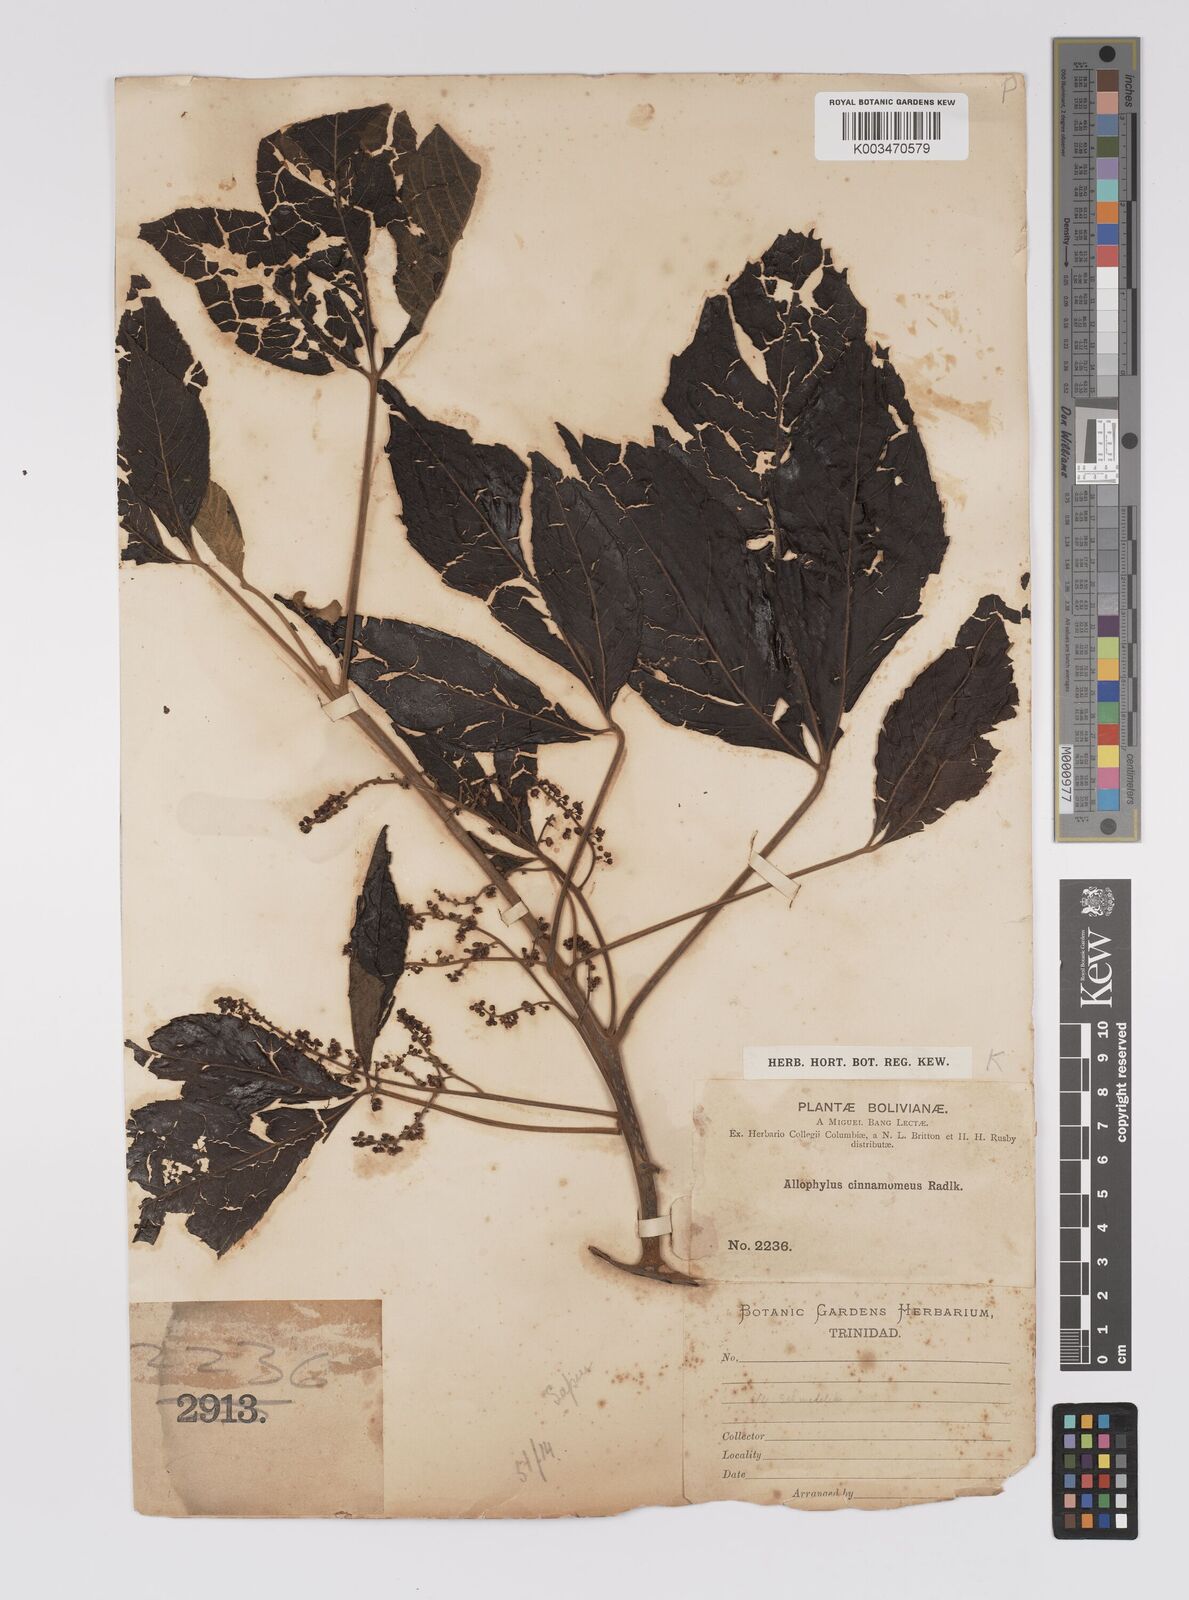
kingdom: Plantae
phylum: Tracheophyta
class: Magnoliopsida
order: Sapindales
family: Sapindaceae
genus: Allophylus
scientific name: Allophylus cinnamomeus
